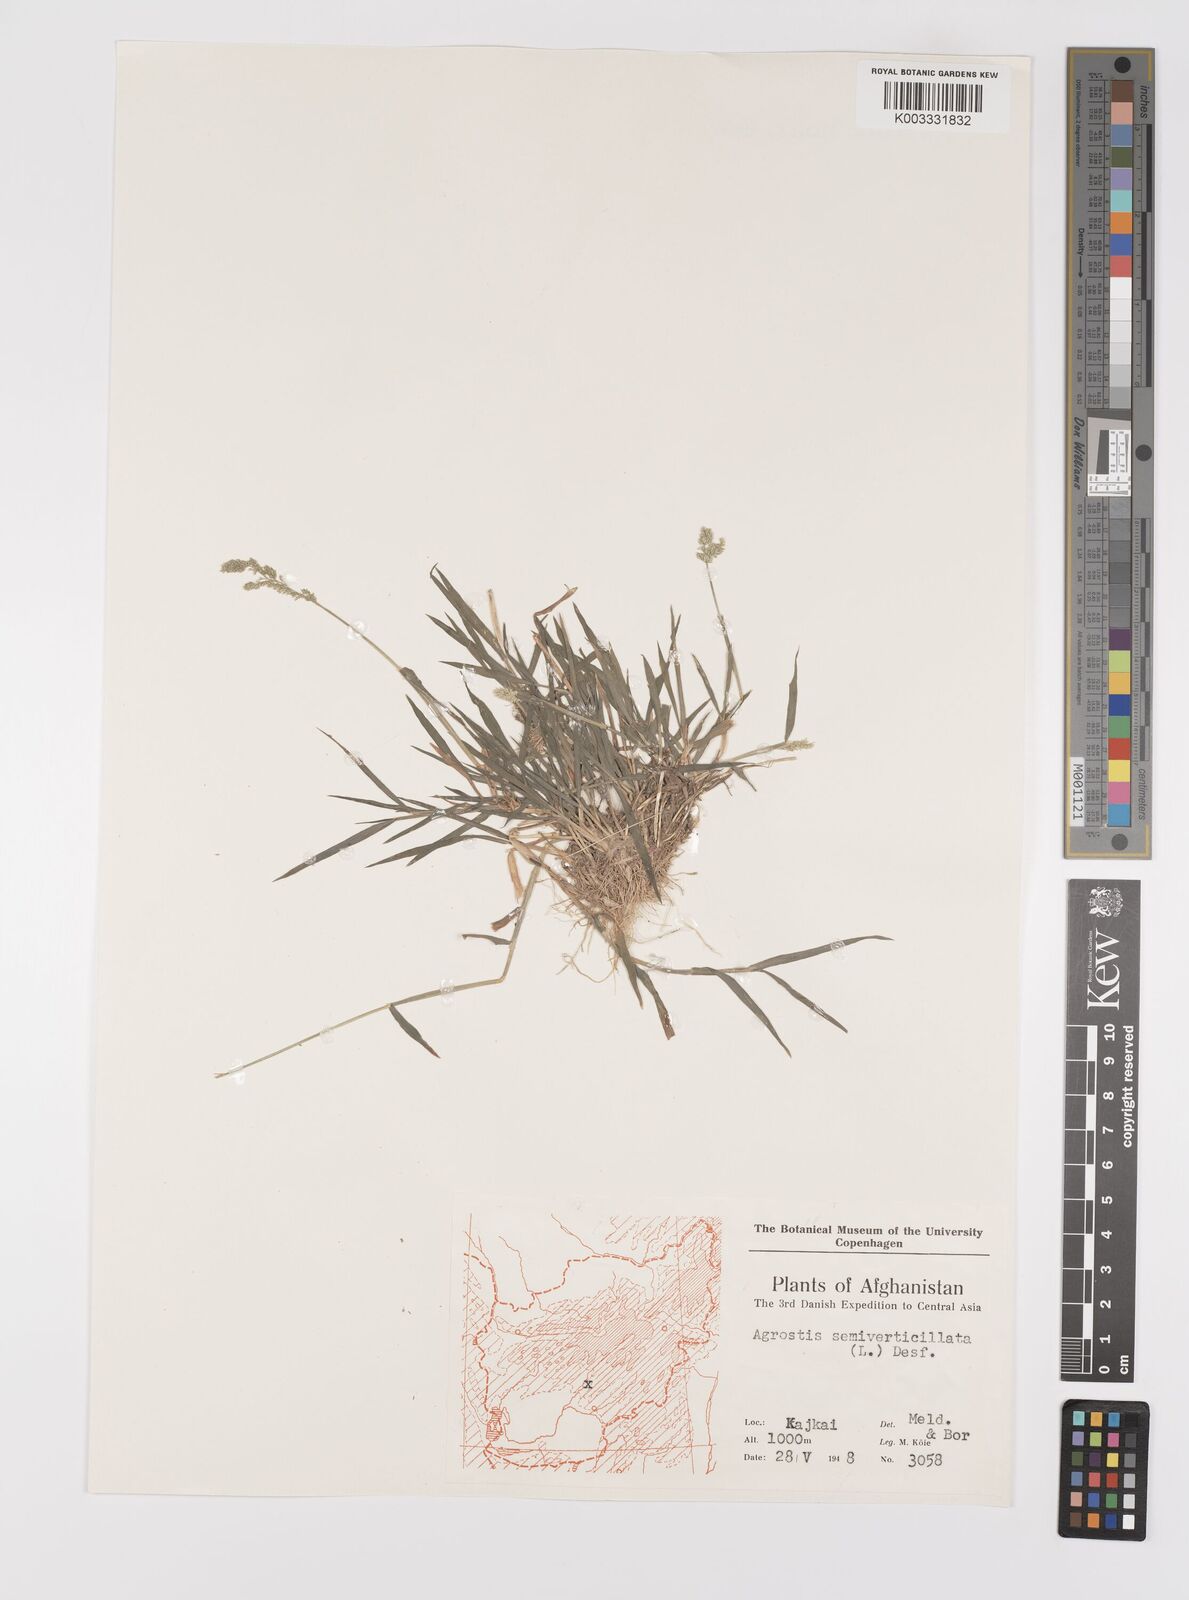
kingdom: Plantae
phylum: Tracheophyta
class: Liliopsida
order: Poales
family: Poaceae
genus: Polypogon
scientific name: Polypogon viridis
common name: Water bent
